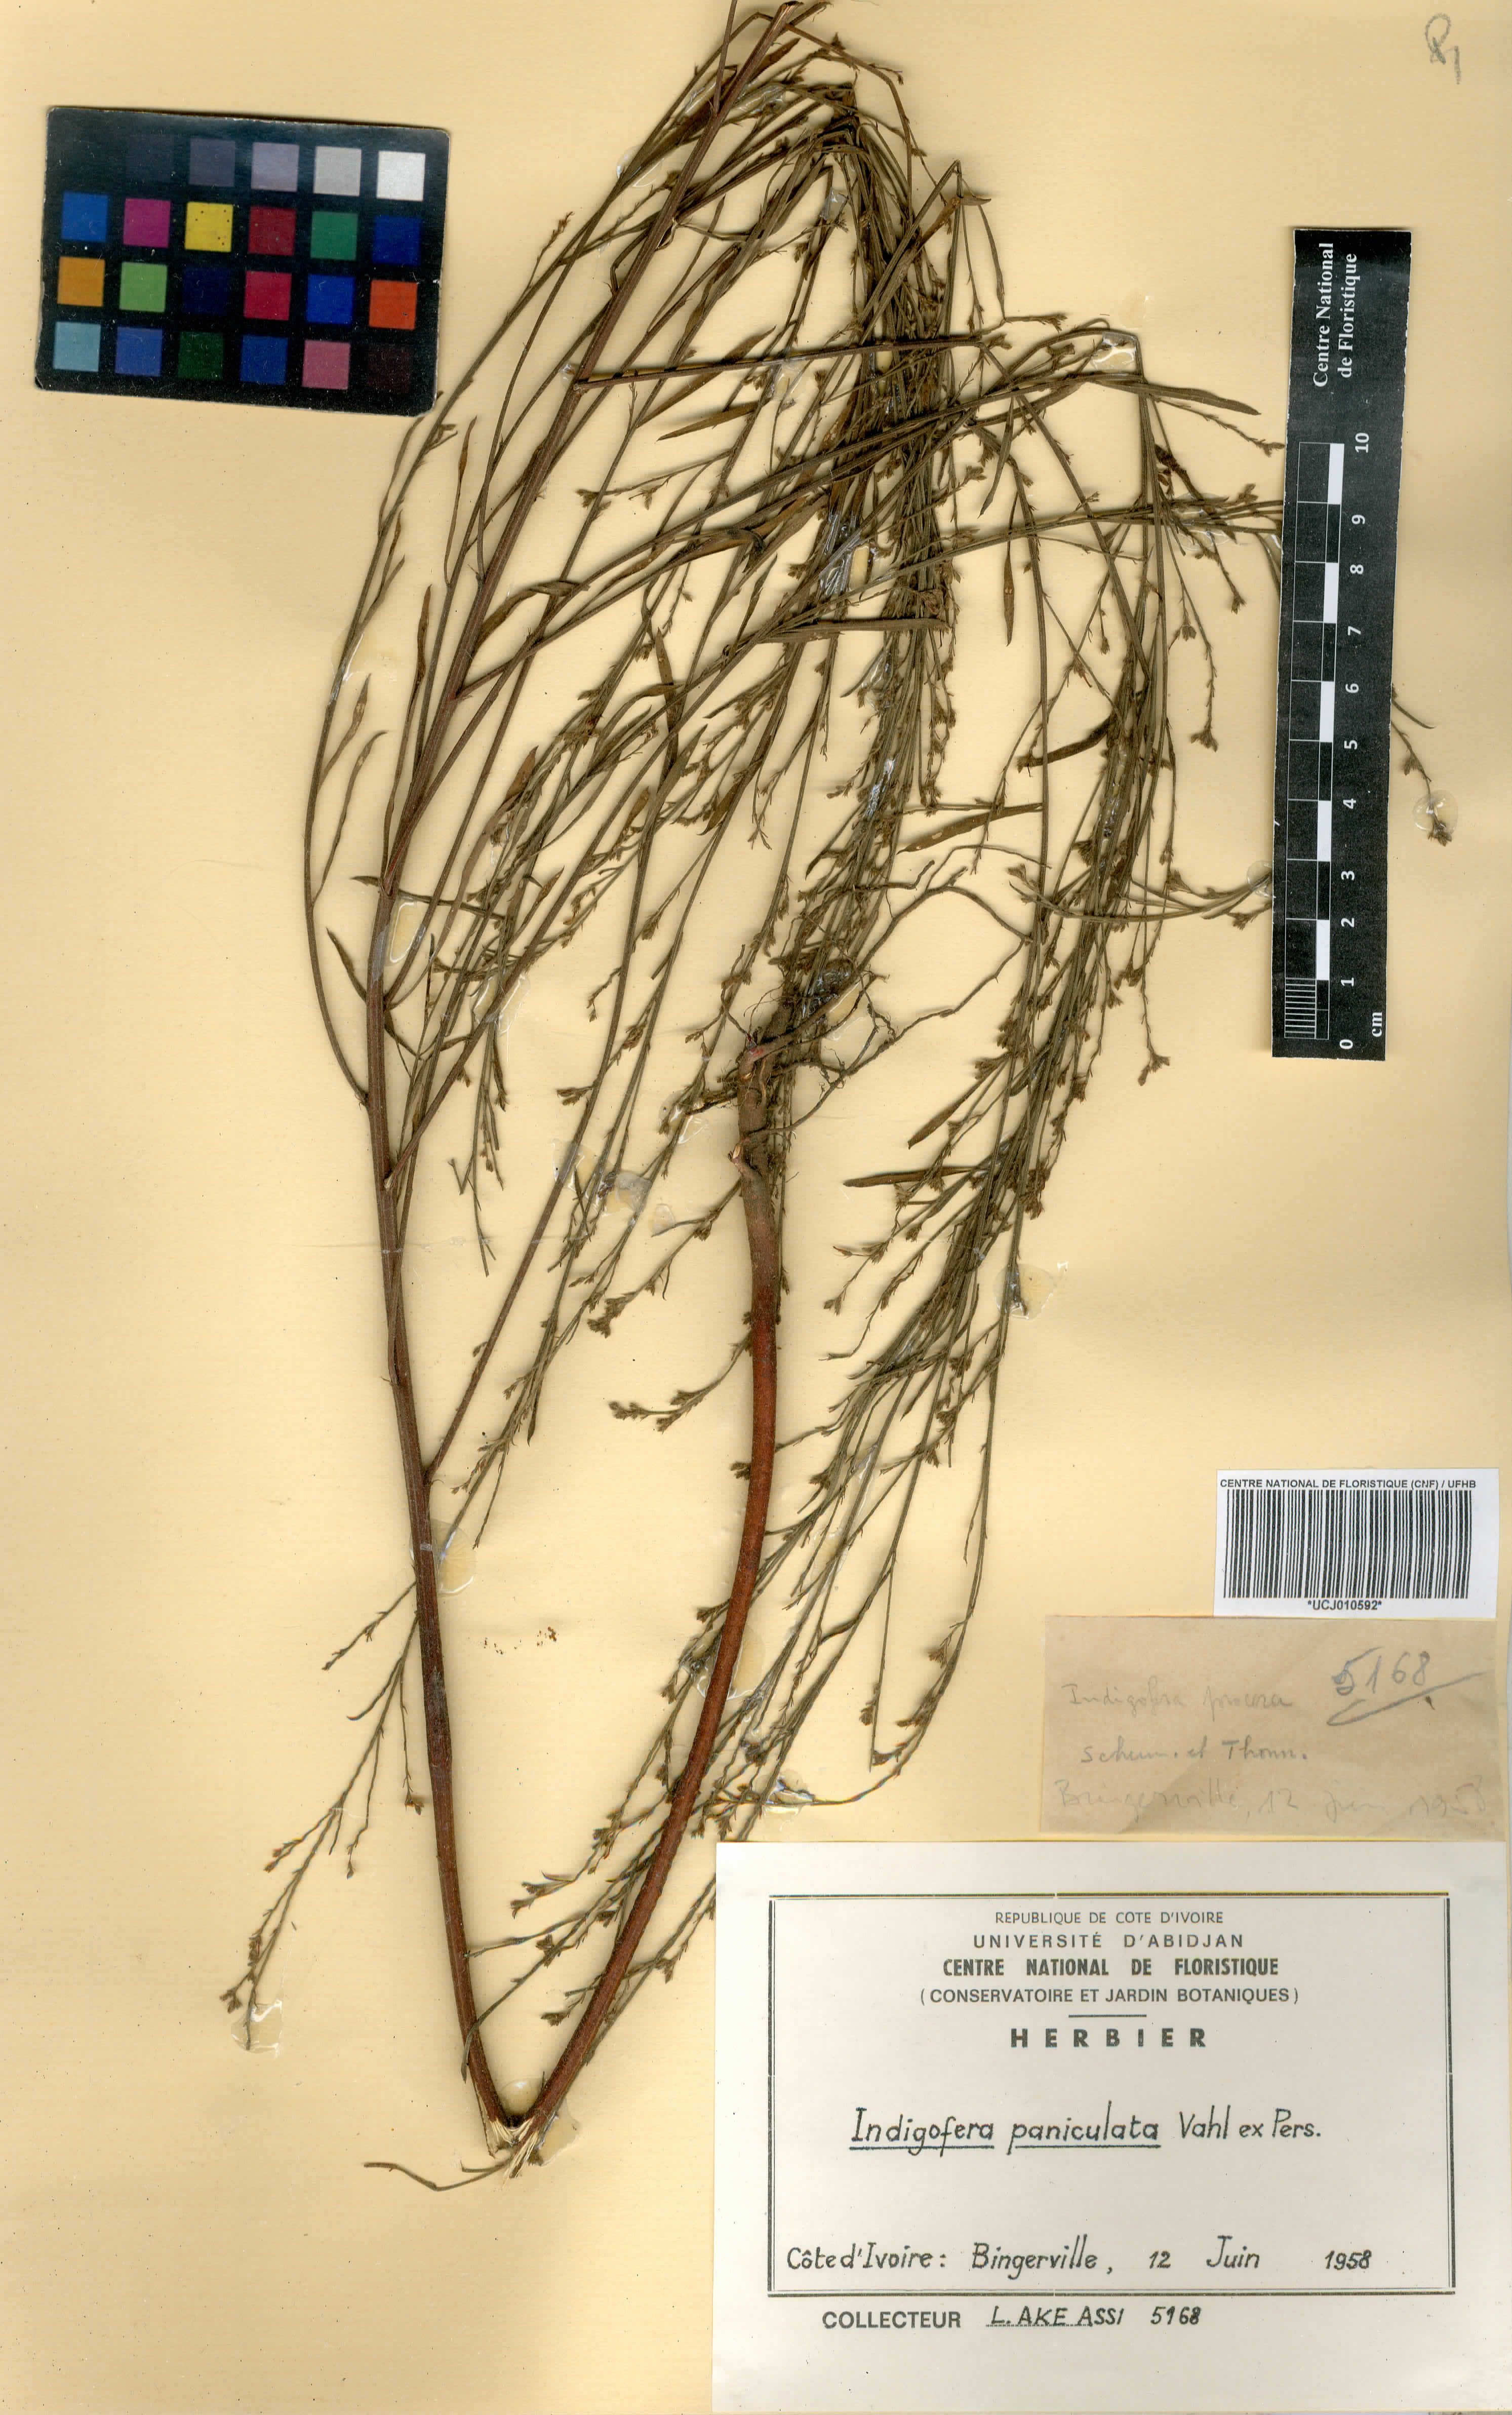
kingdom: Plantae
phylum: Tracheophyta
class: Magnoliopsida
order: Fabales
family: Fabaceae
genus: Indigofera
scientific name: Indigofera paniculata
